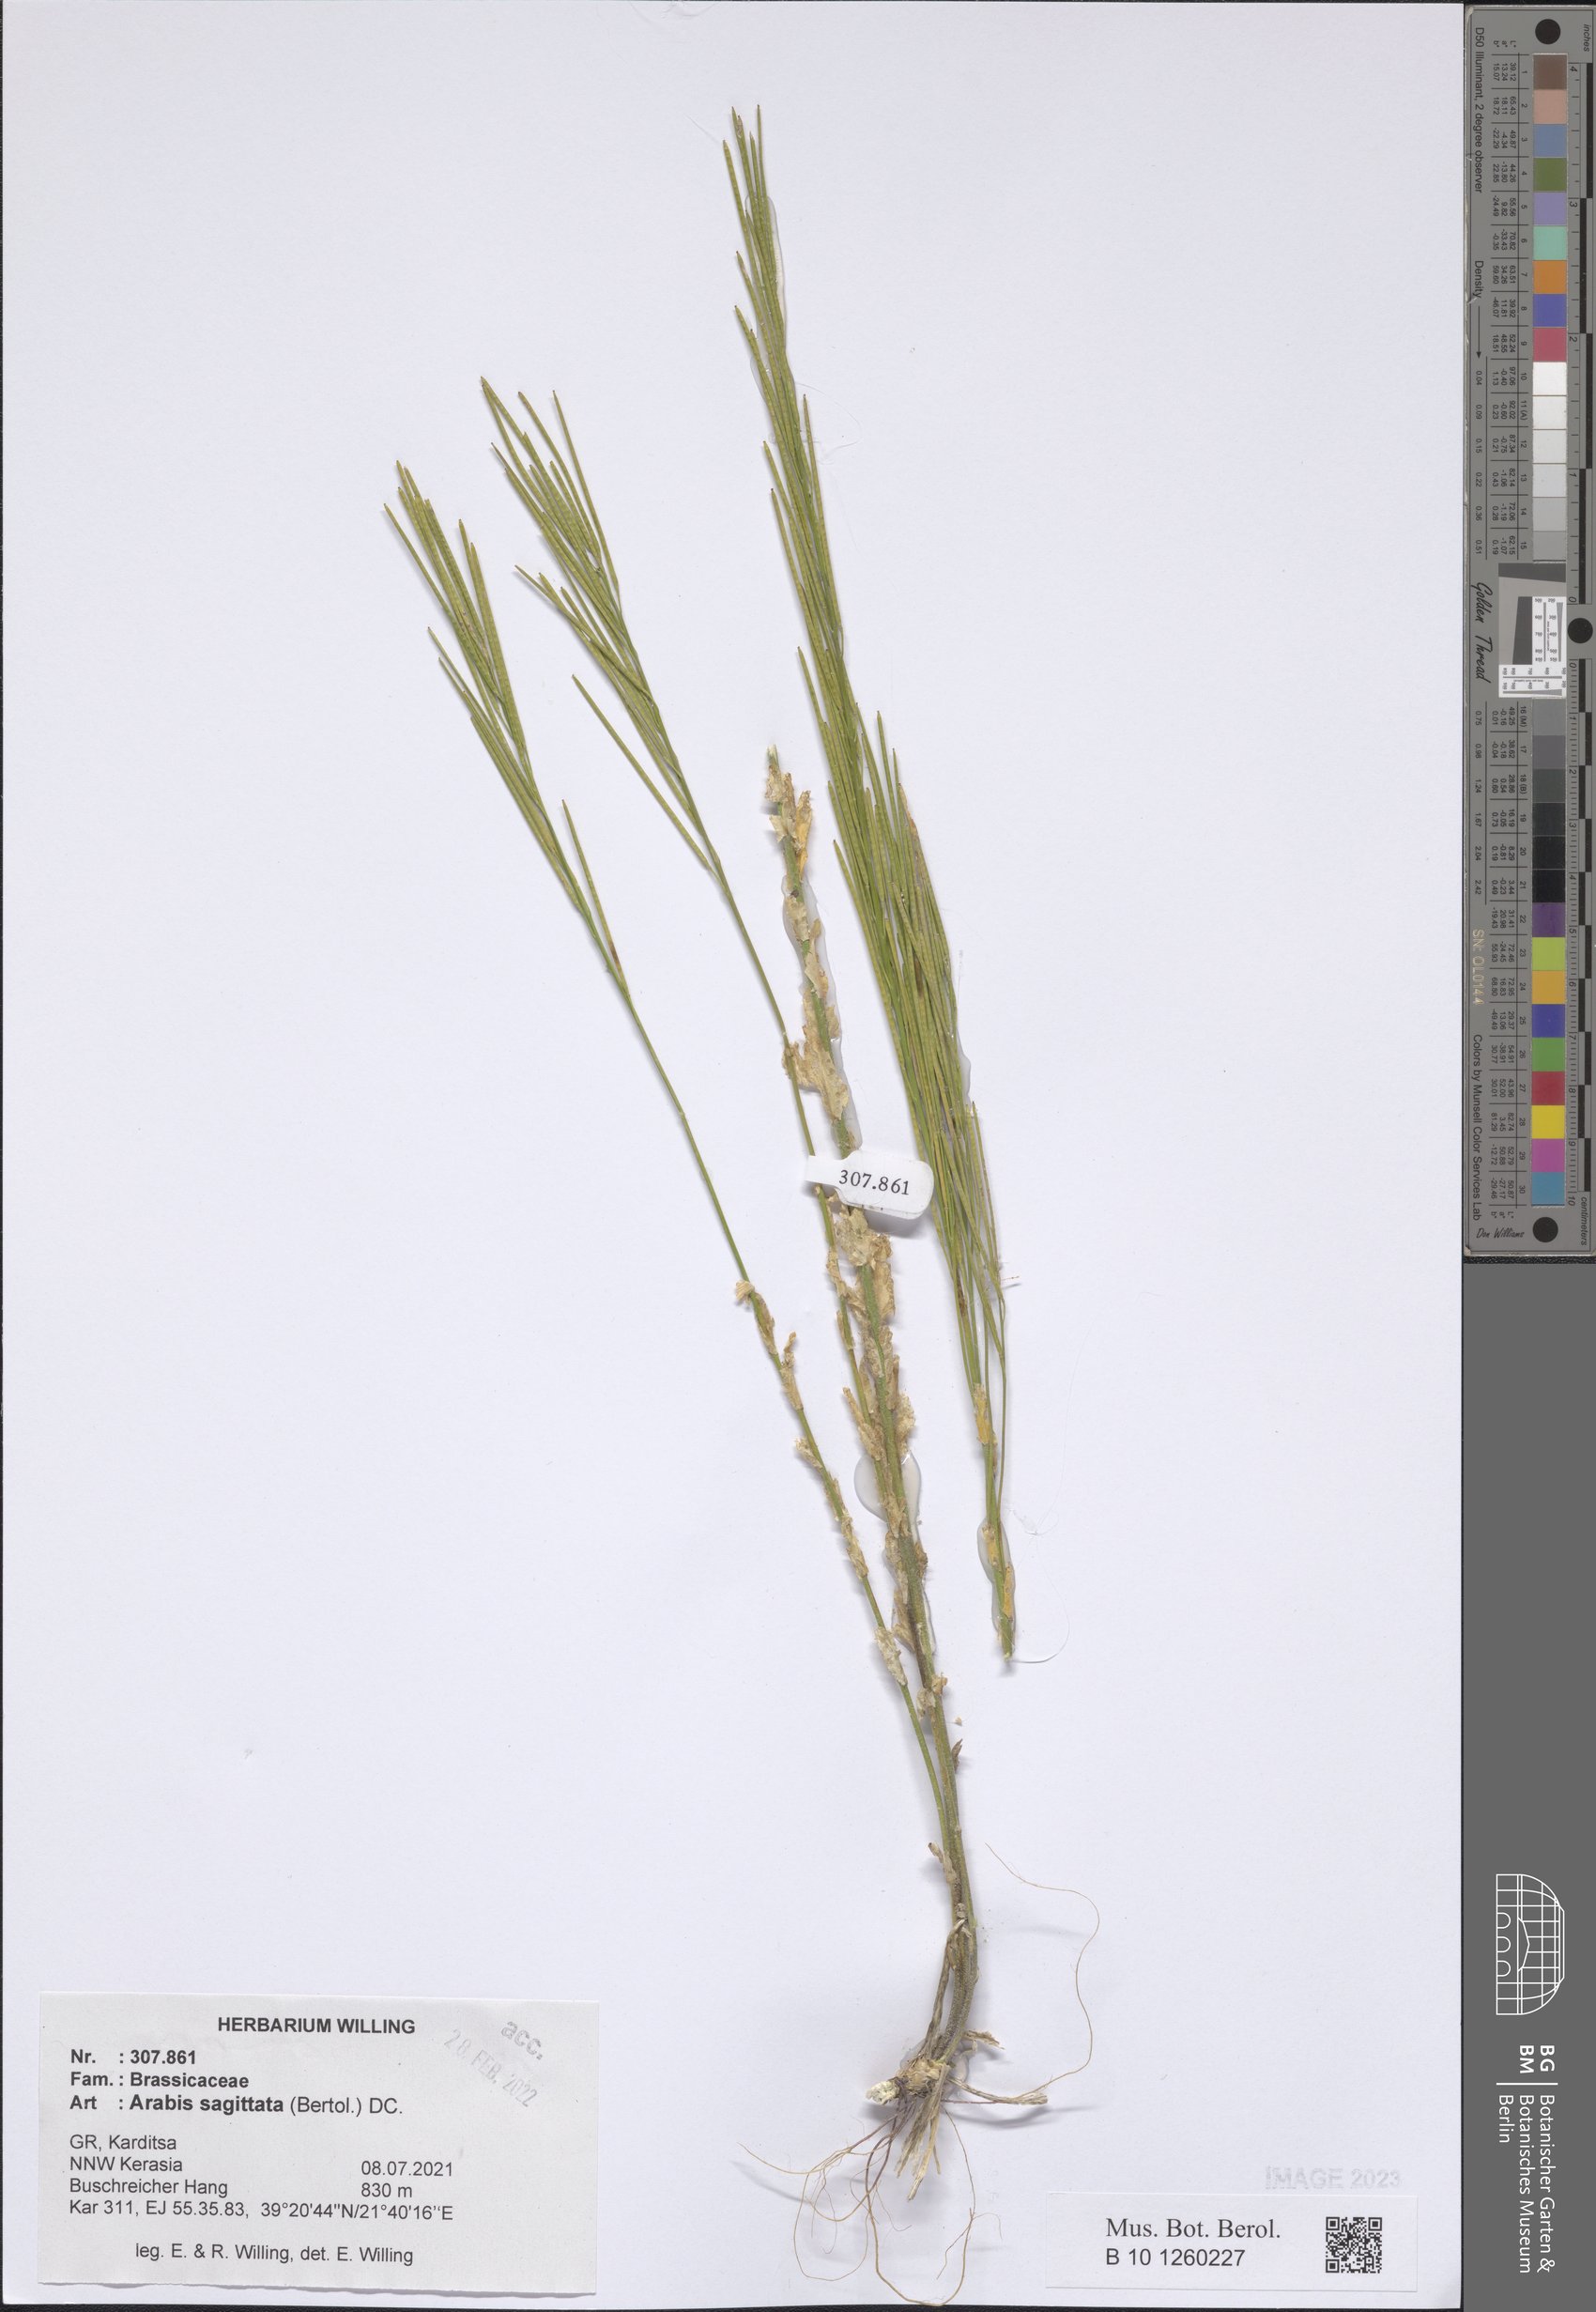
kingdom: Plantae
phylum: Tracheophyta
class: Magnoliopsida
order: Brassicales
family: Brassicaceae
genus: Arabis
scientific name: Arabis sagittata
